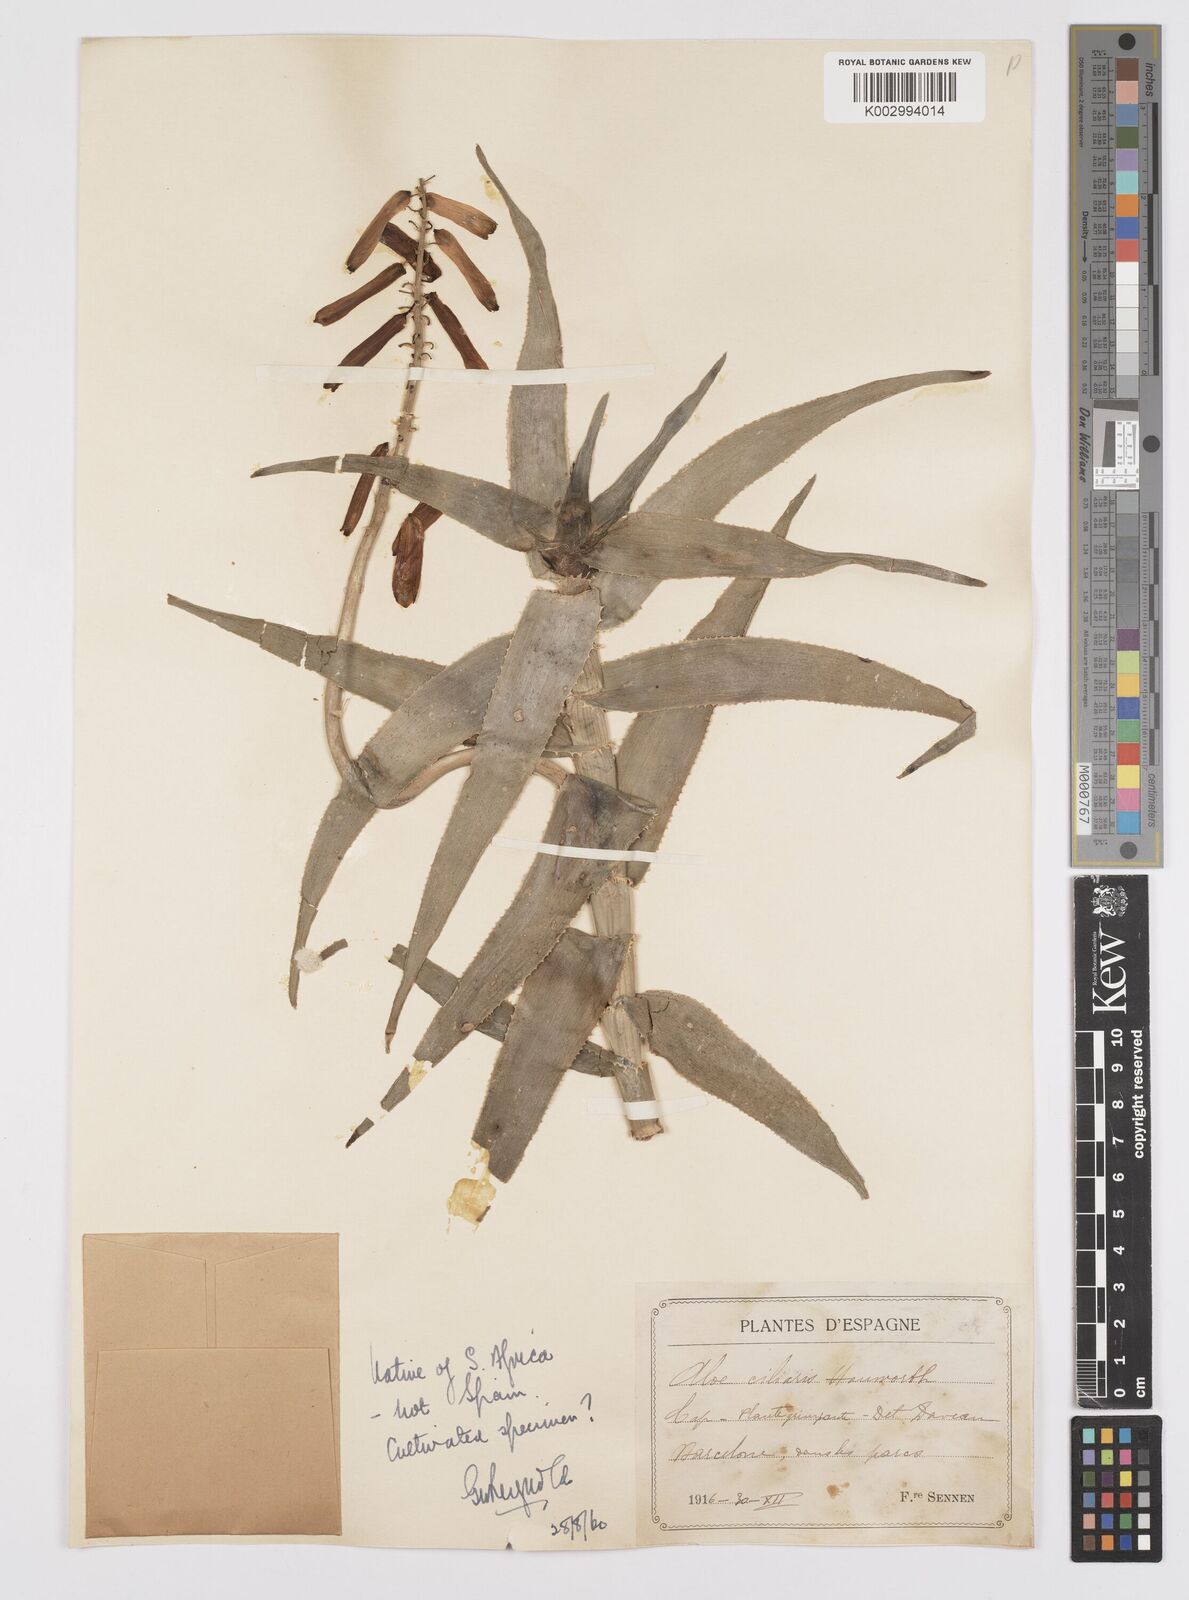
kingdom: Plantae
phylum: Tracheophyta
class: Liliopsida
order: Asparagales
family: Asphodelaceae
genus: Aloiampelos
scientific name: Aloiampelos ciliaris
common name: Climbing aloe
